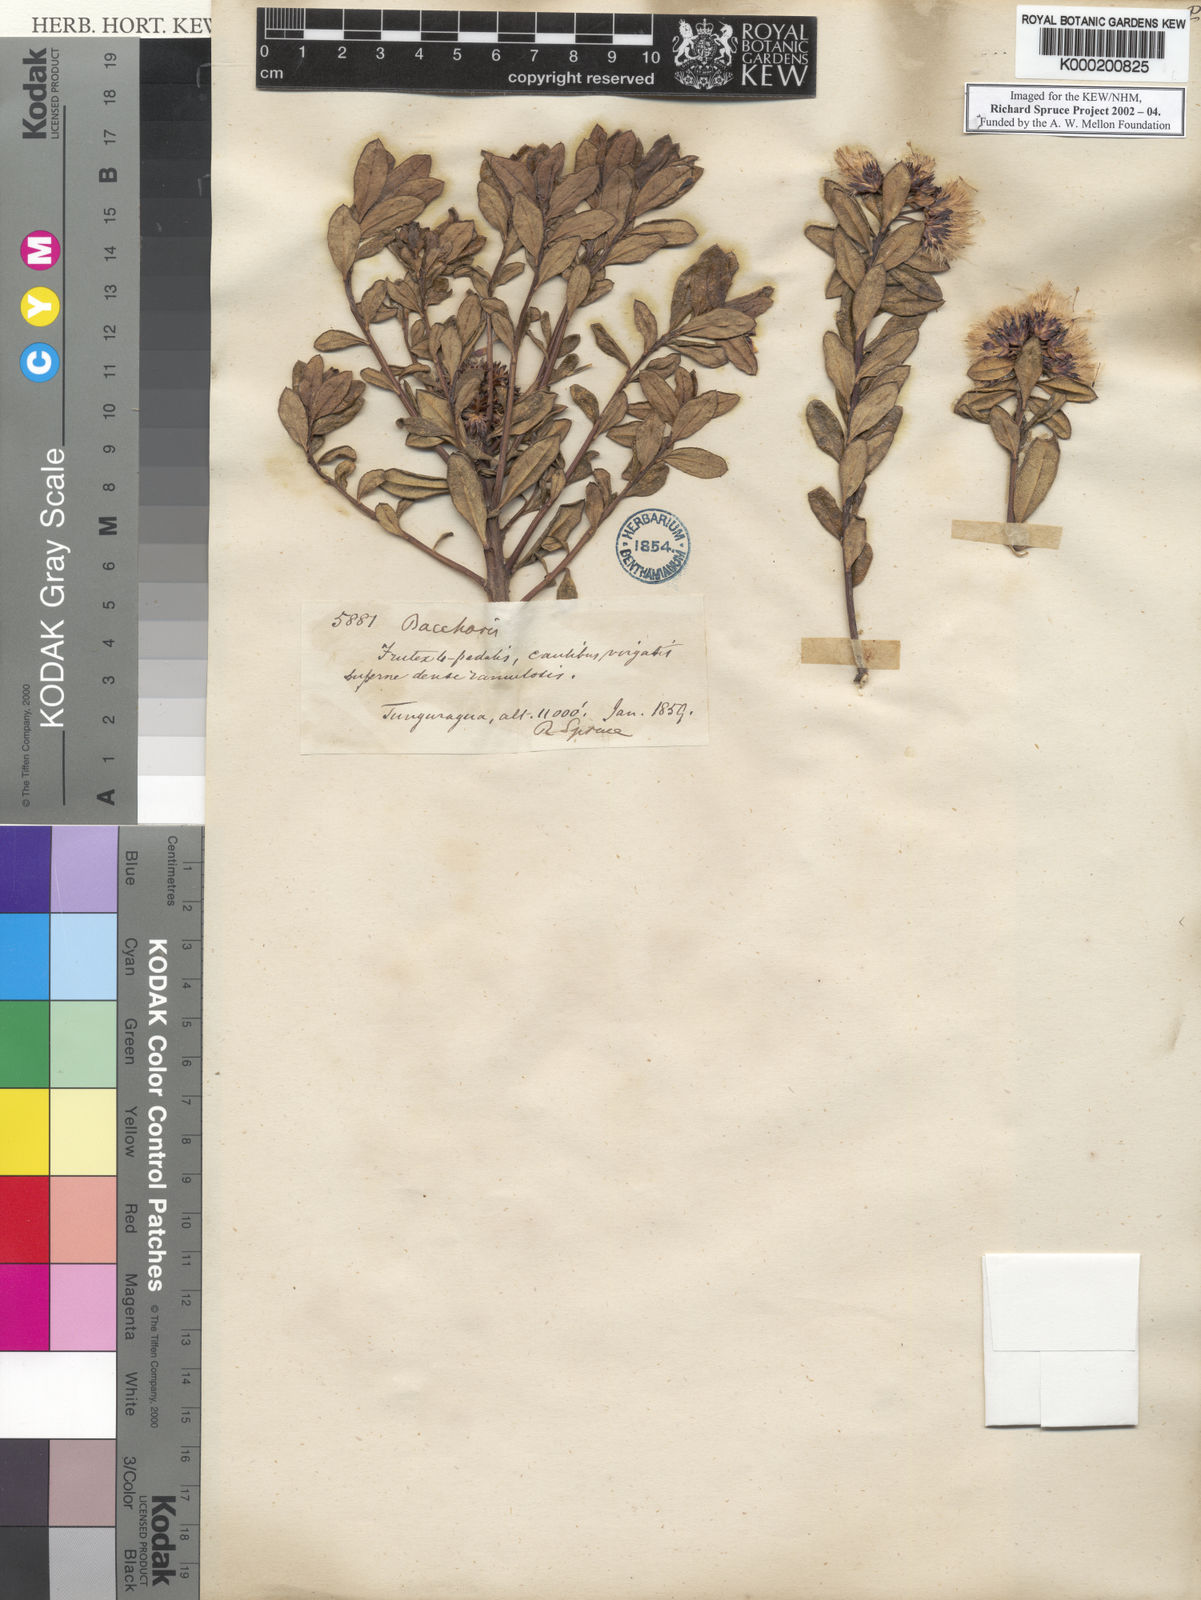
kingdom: Plantae
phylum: Tracheophyta
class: Magnoliopsida
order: Asterales
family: Asteraceae
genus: Baccharis
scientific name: Baccharis buxifolia
